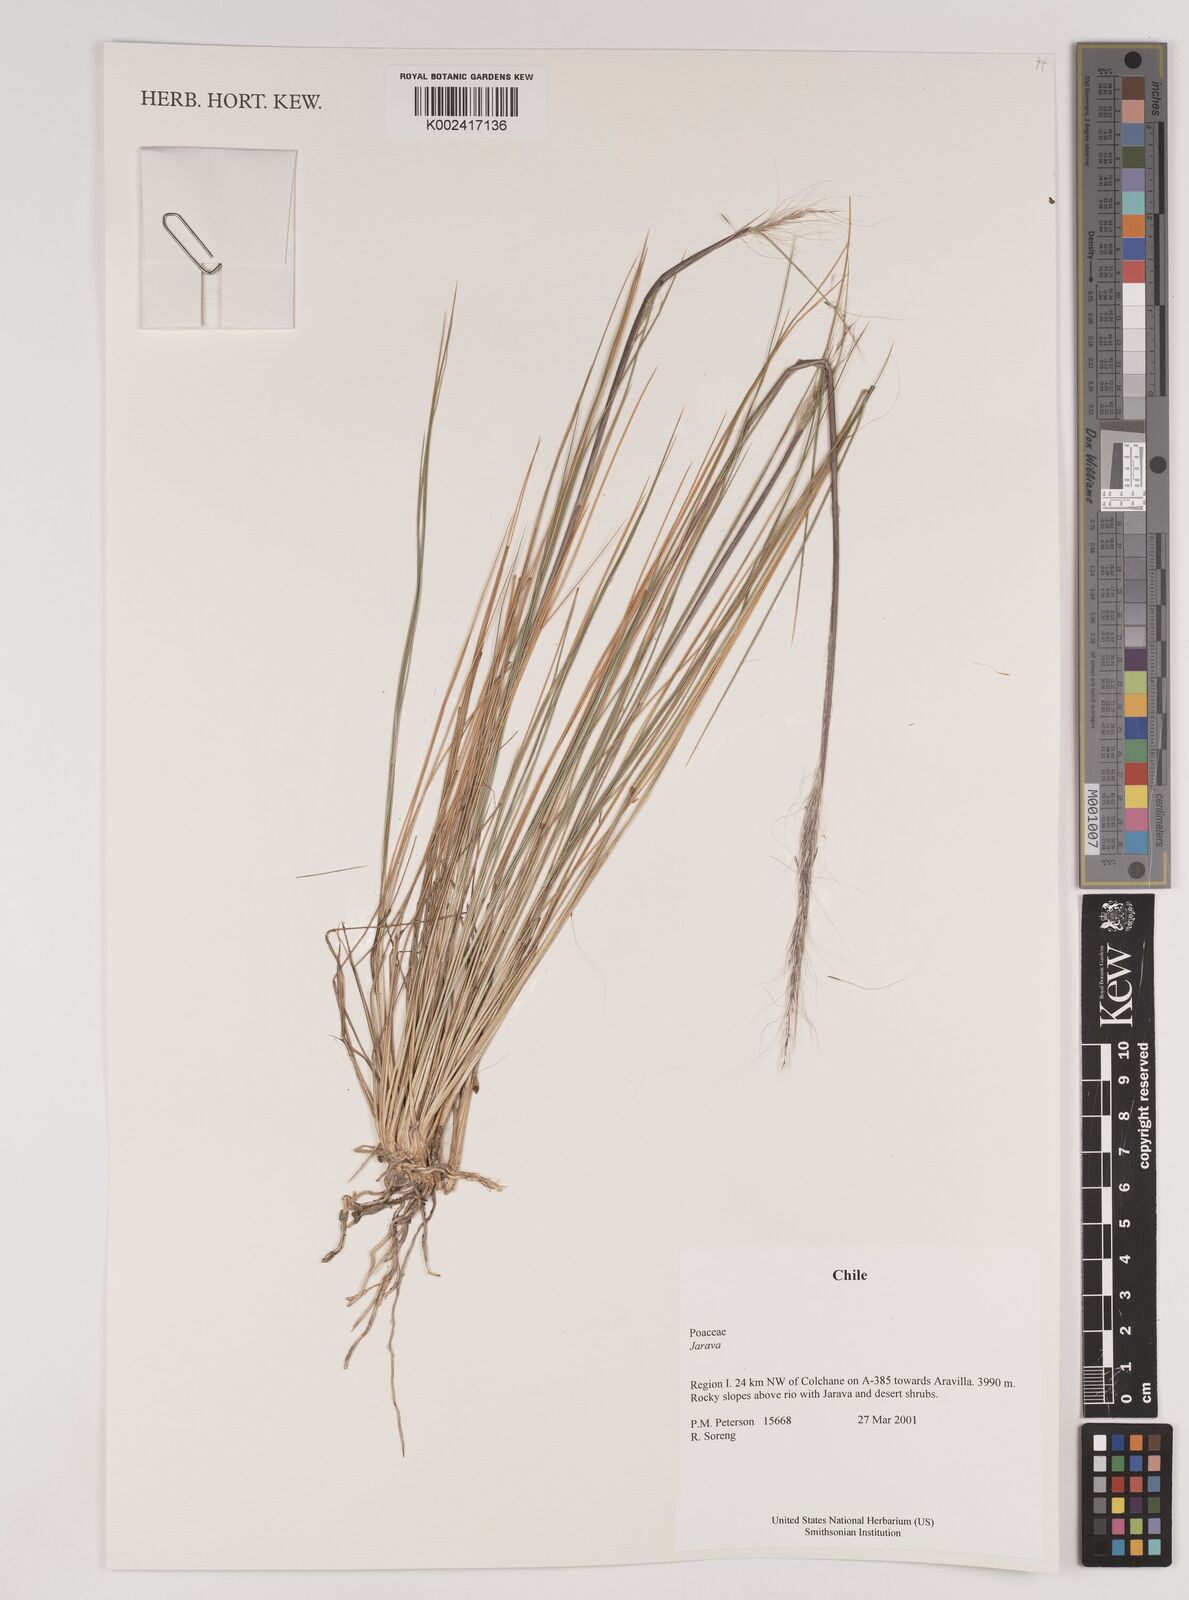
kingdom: Plantae
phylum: Tracheophyta
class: Liliopsida
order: Poales
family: Poaceae
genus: Stipa
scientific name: Stipa
